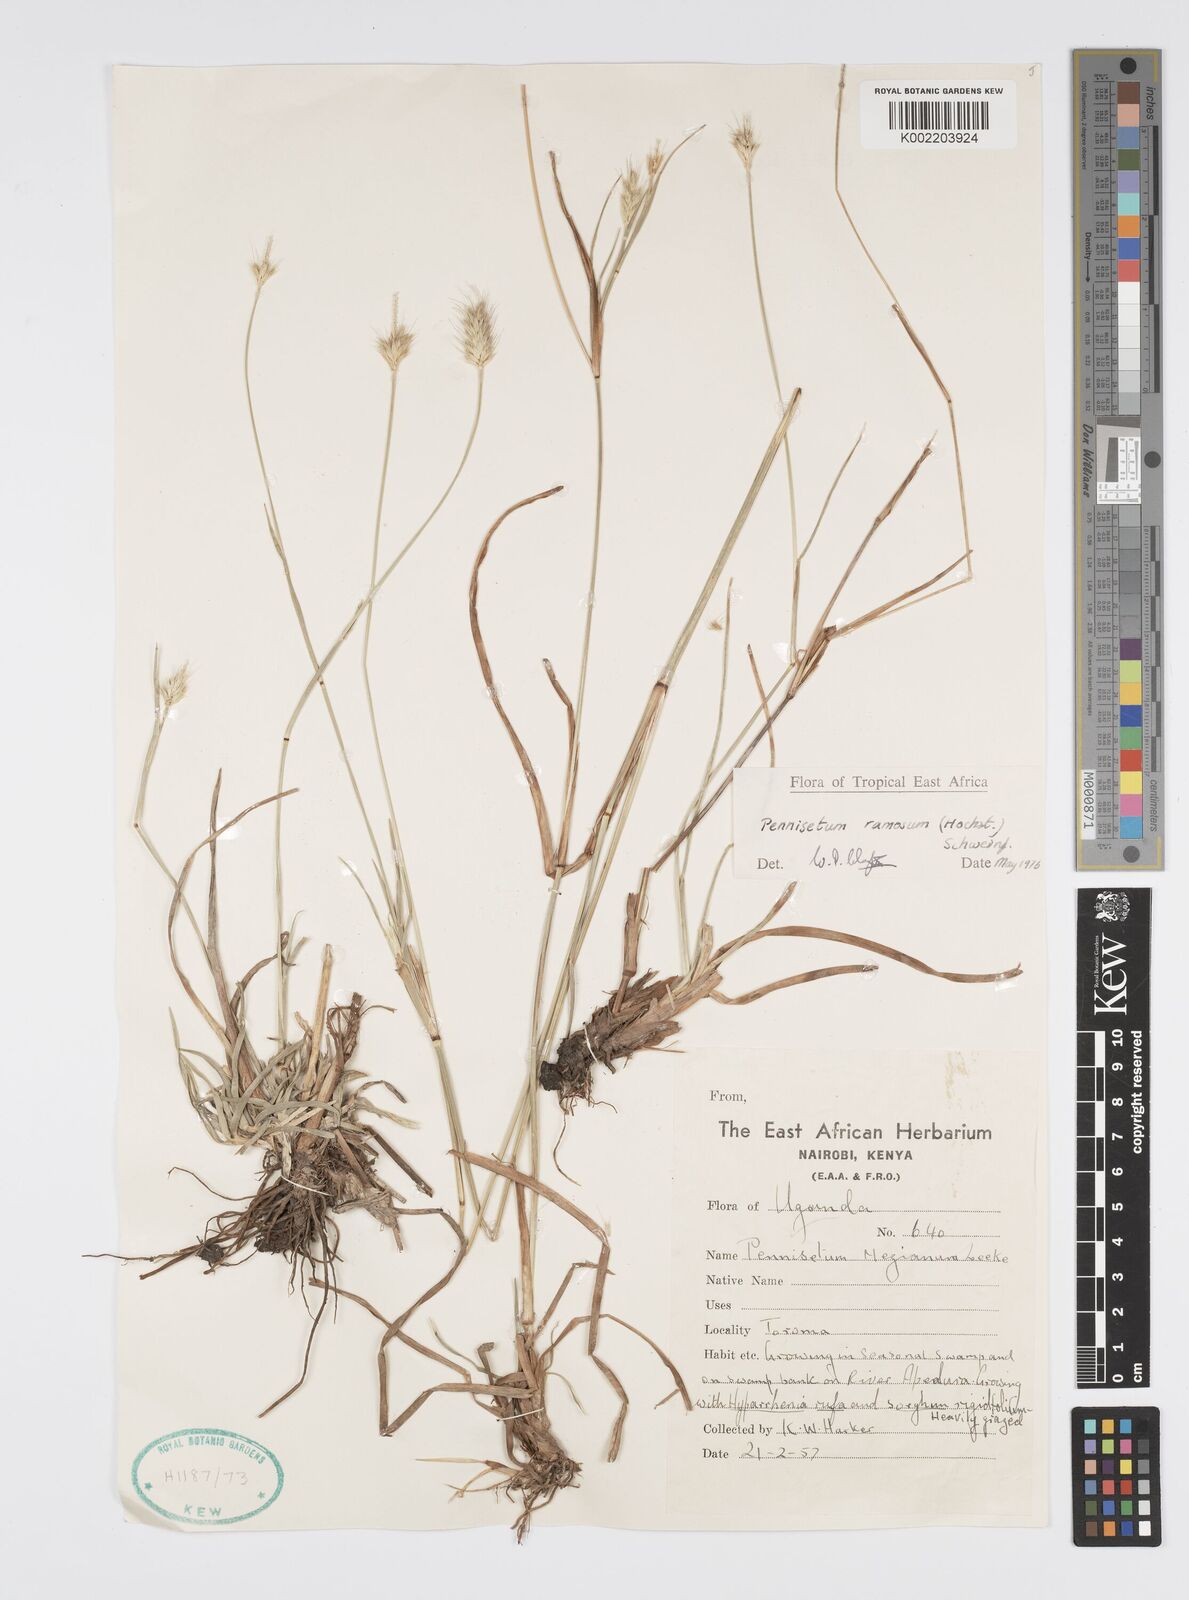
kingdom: Plantae
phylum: Tracheophyta
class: Liliopsida
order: Poales
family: Poaceae
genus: Cenchrus
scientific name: Cenchrus ramosus
